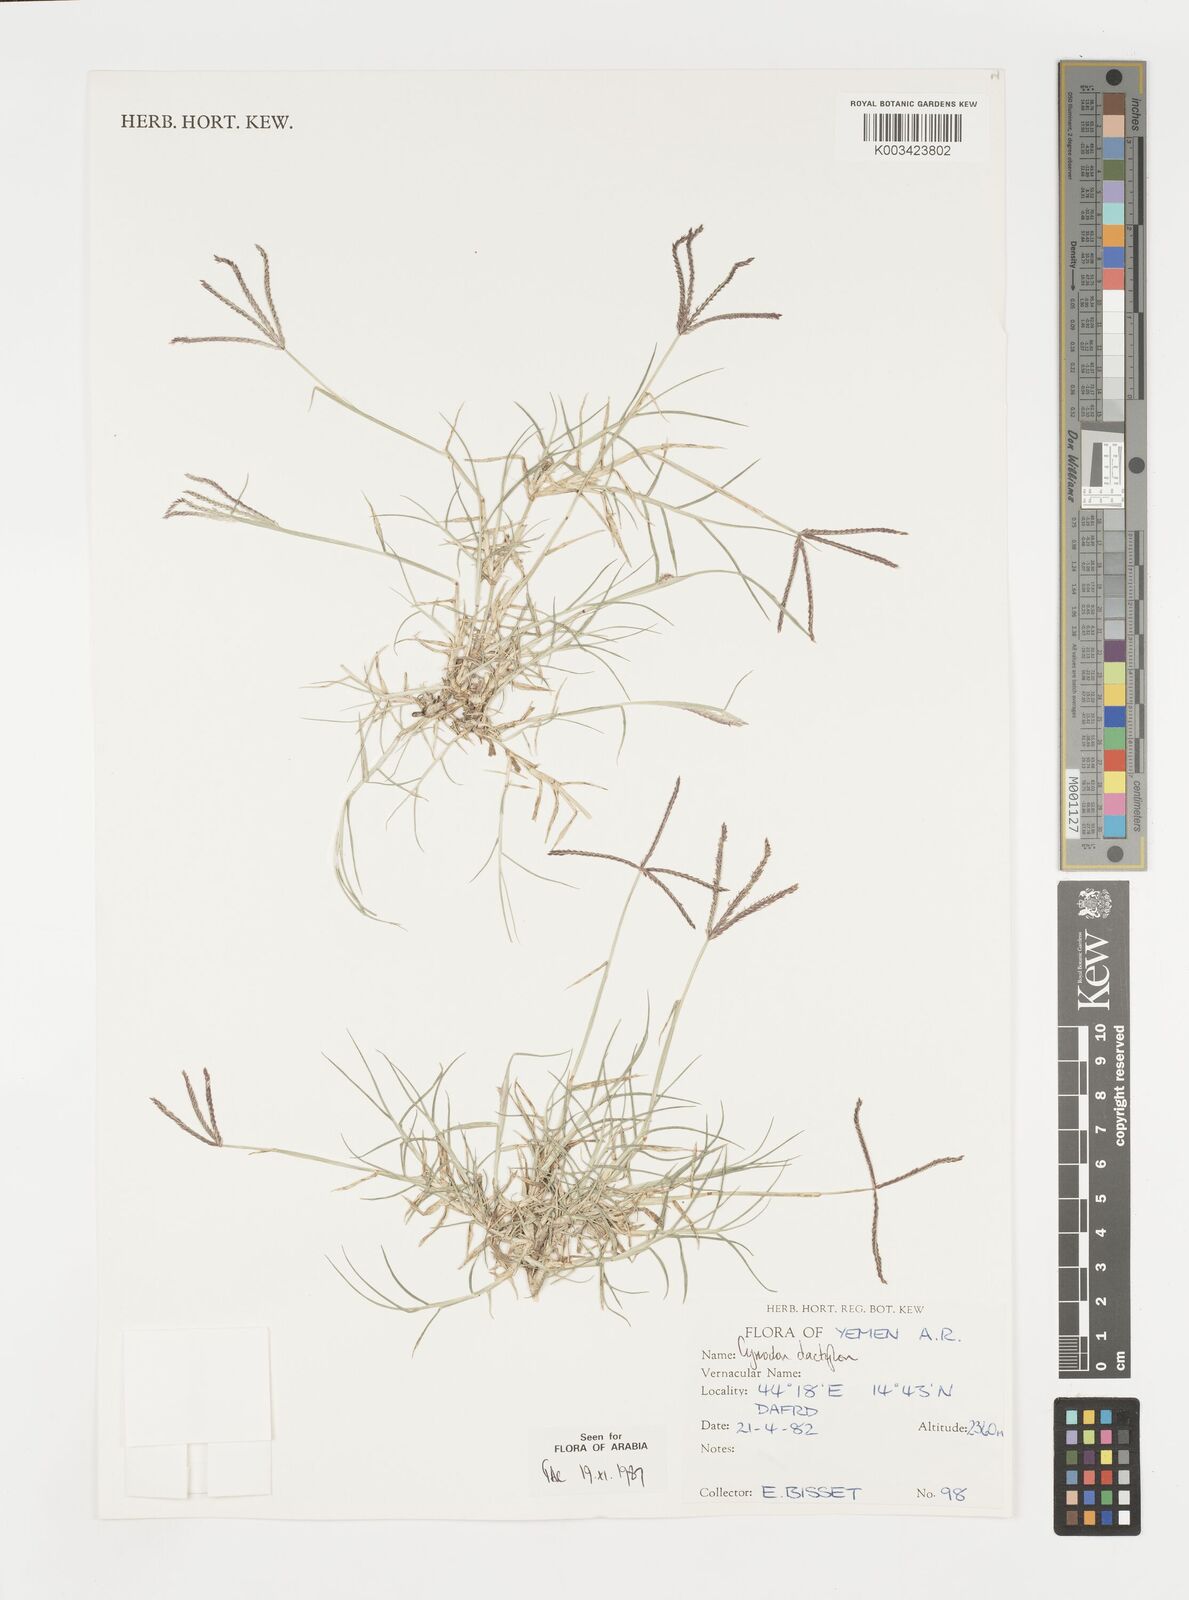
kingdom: Plantae
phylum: Tracheophyta
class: Liliopsida
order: Poales
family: Poaceae
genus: Cynodon
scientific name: Cynodon dactylon
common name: Bermuda grass
